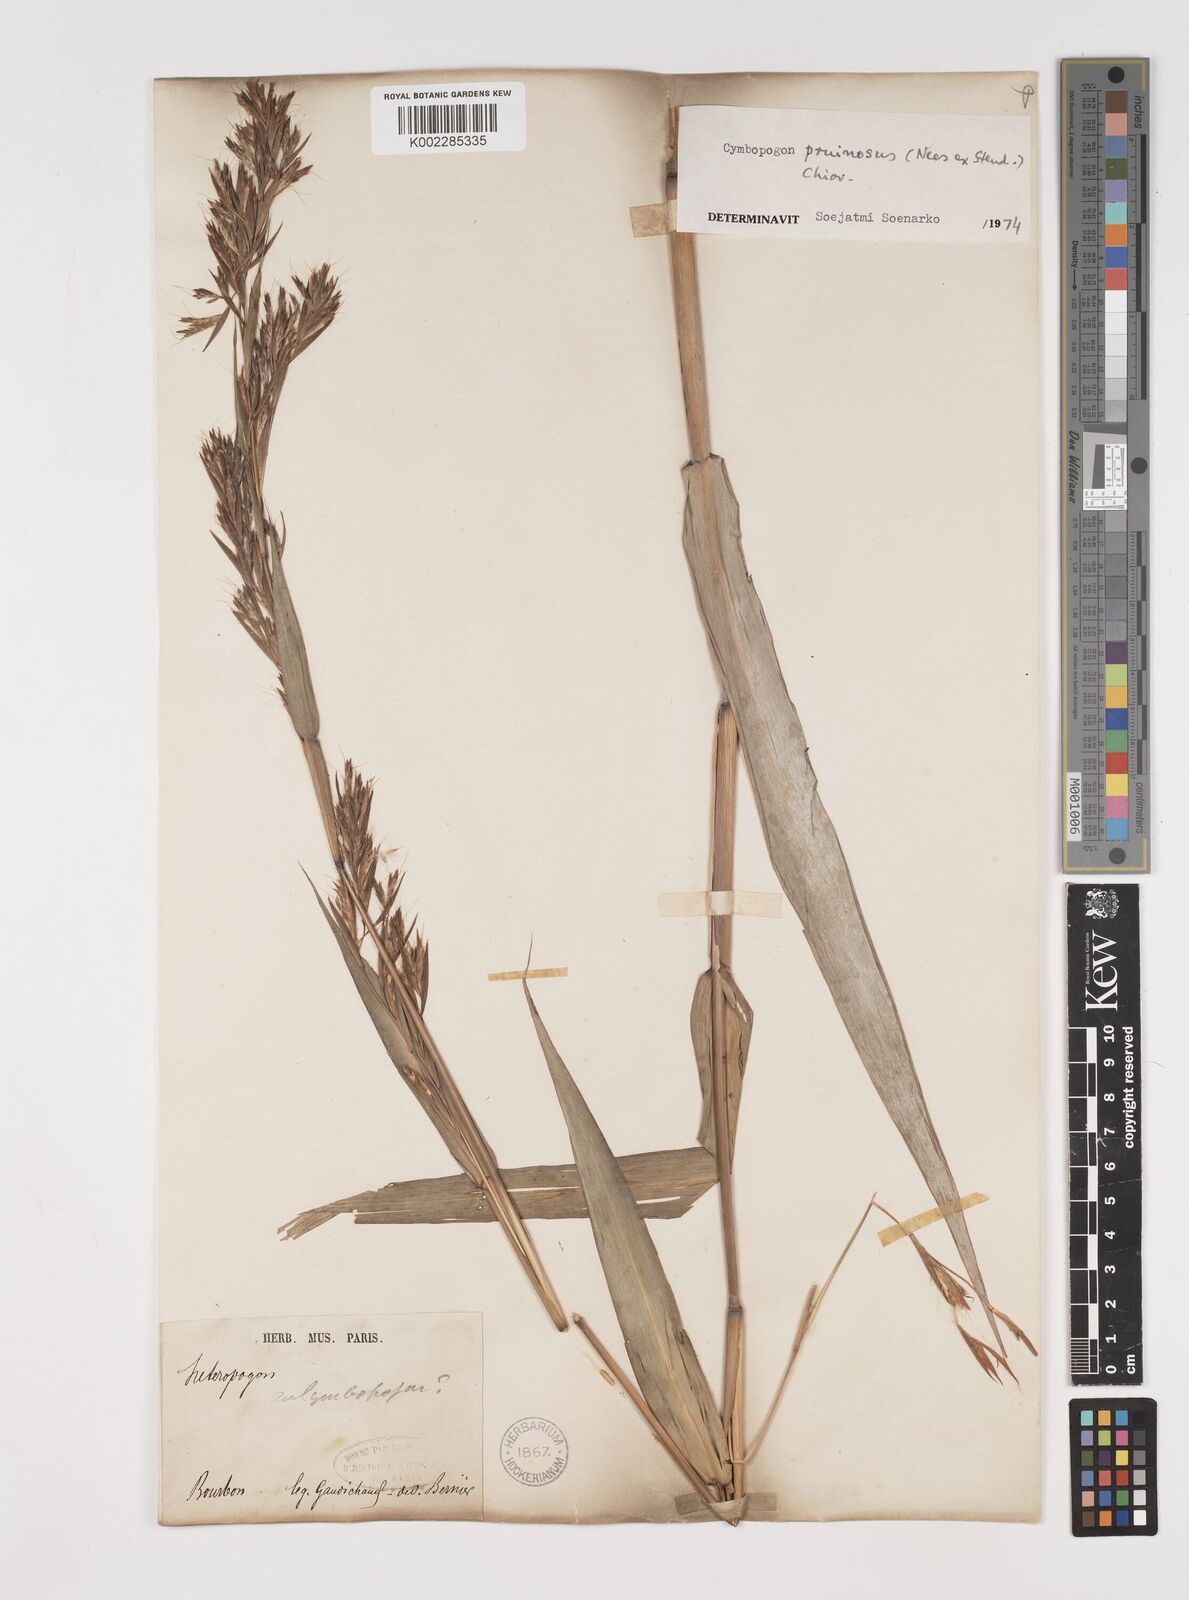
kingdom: Plantae
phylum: Tracheophyta
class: Liliopsida
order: Poales
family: Poaceae
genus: Cymbopogon
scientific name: Cymbopogon pruinosus
